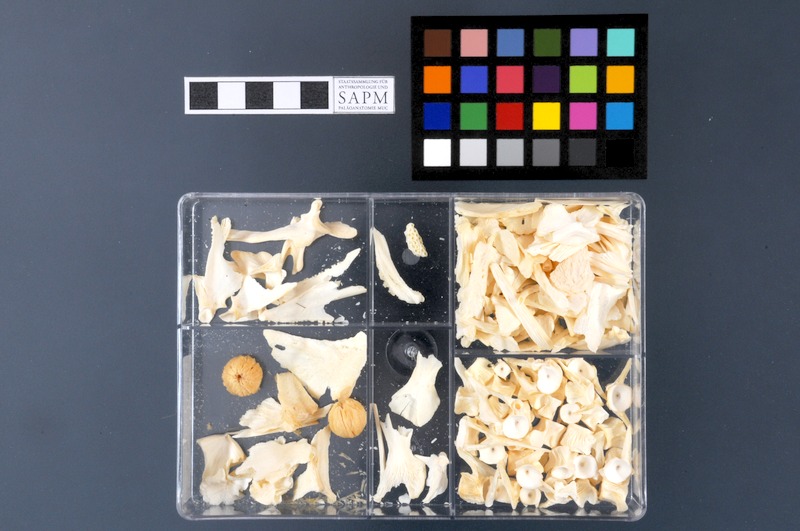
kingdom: Animalia
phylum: Chordata
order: Gadiformes
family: Macrouridae
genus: Coryphaenoides
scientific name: Coryphaenoides rupestris
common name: Rock grenadier
